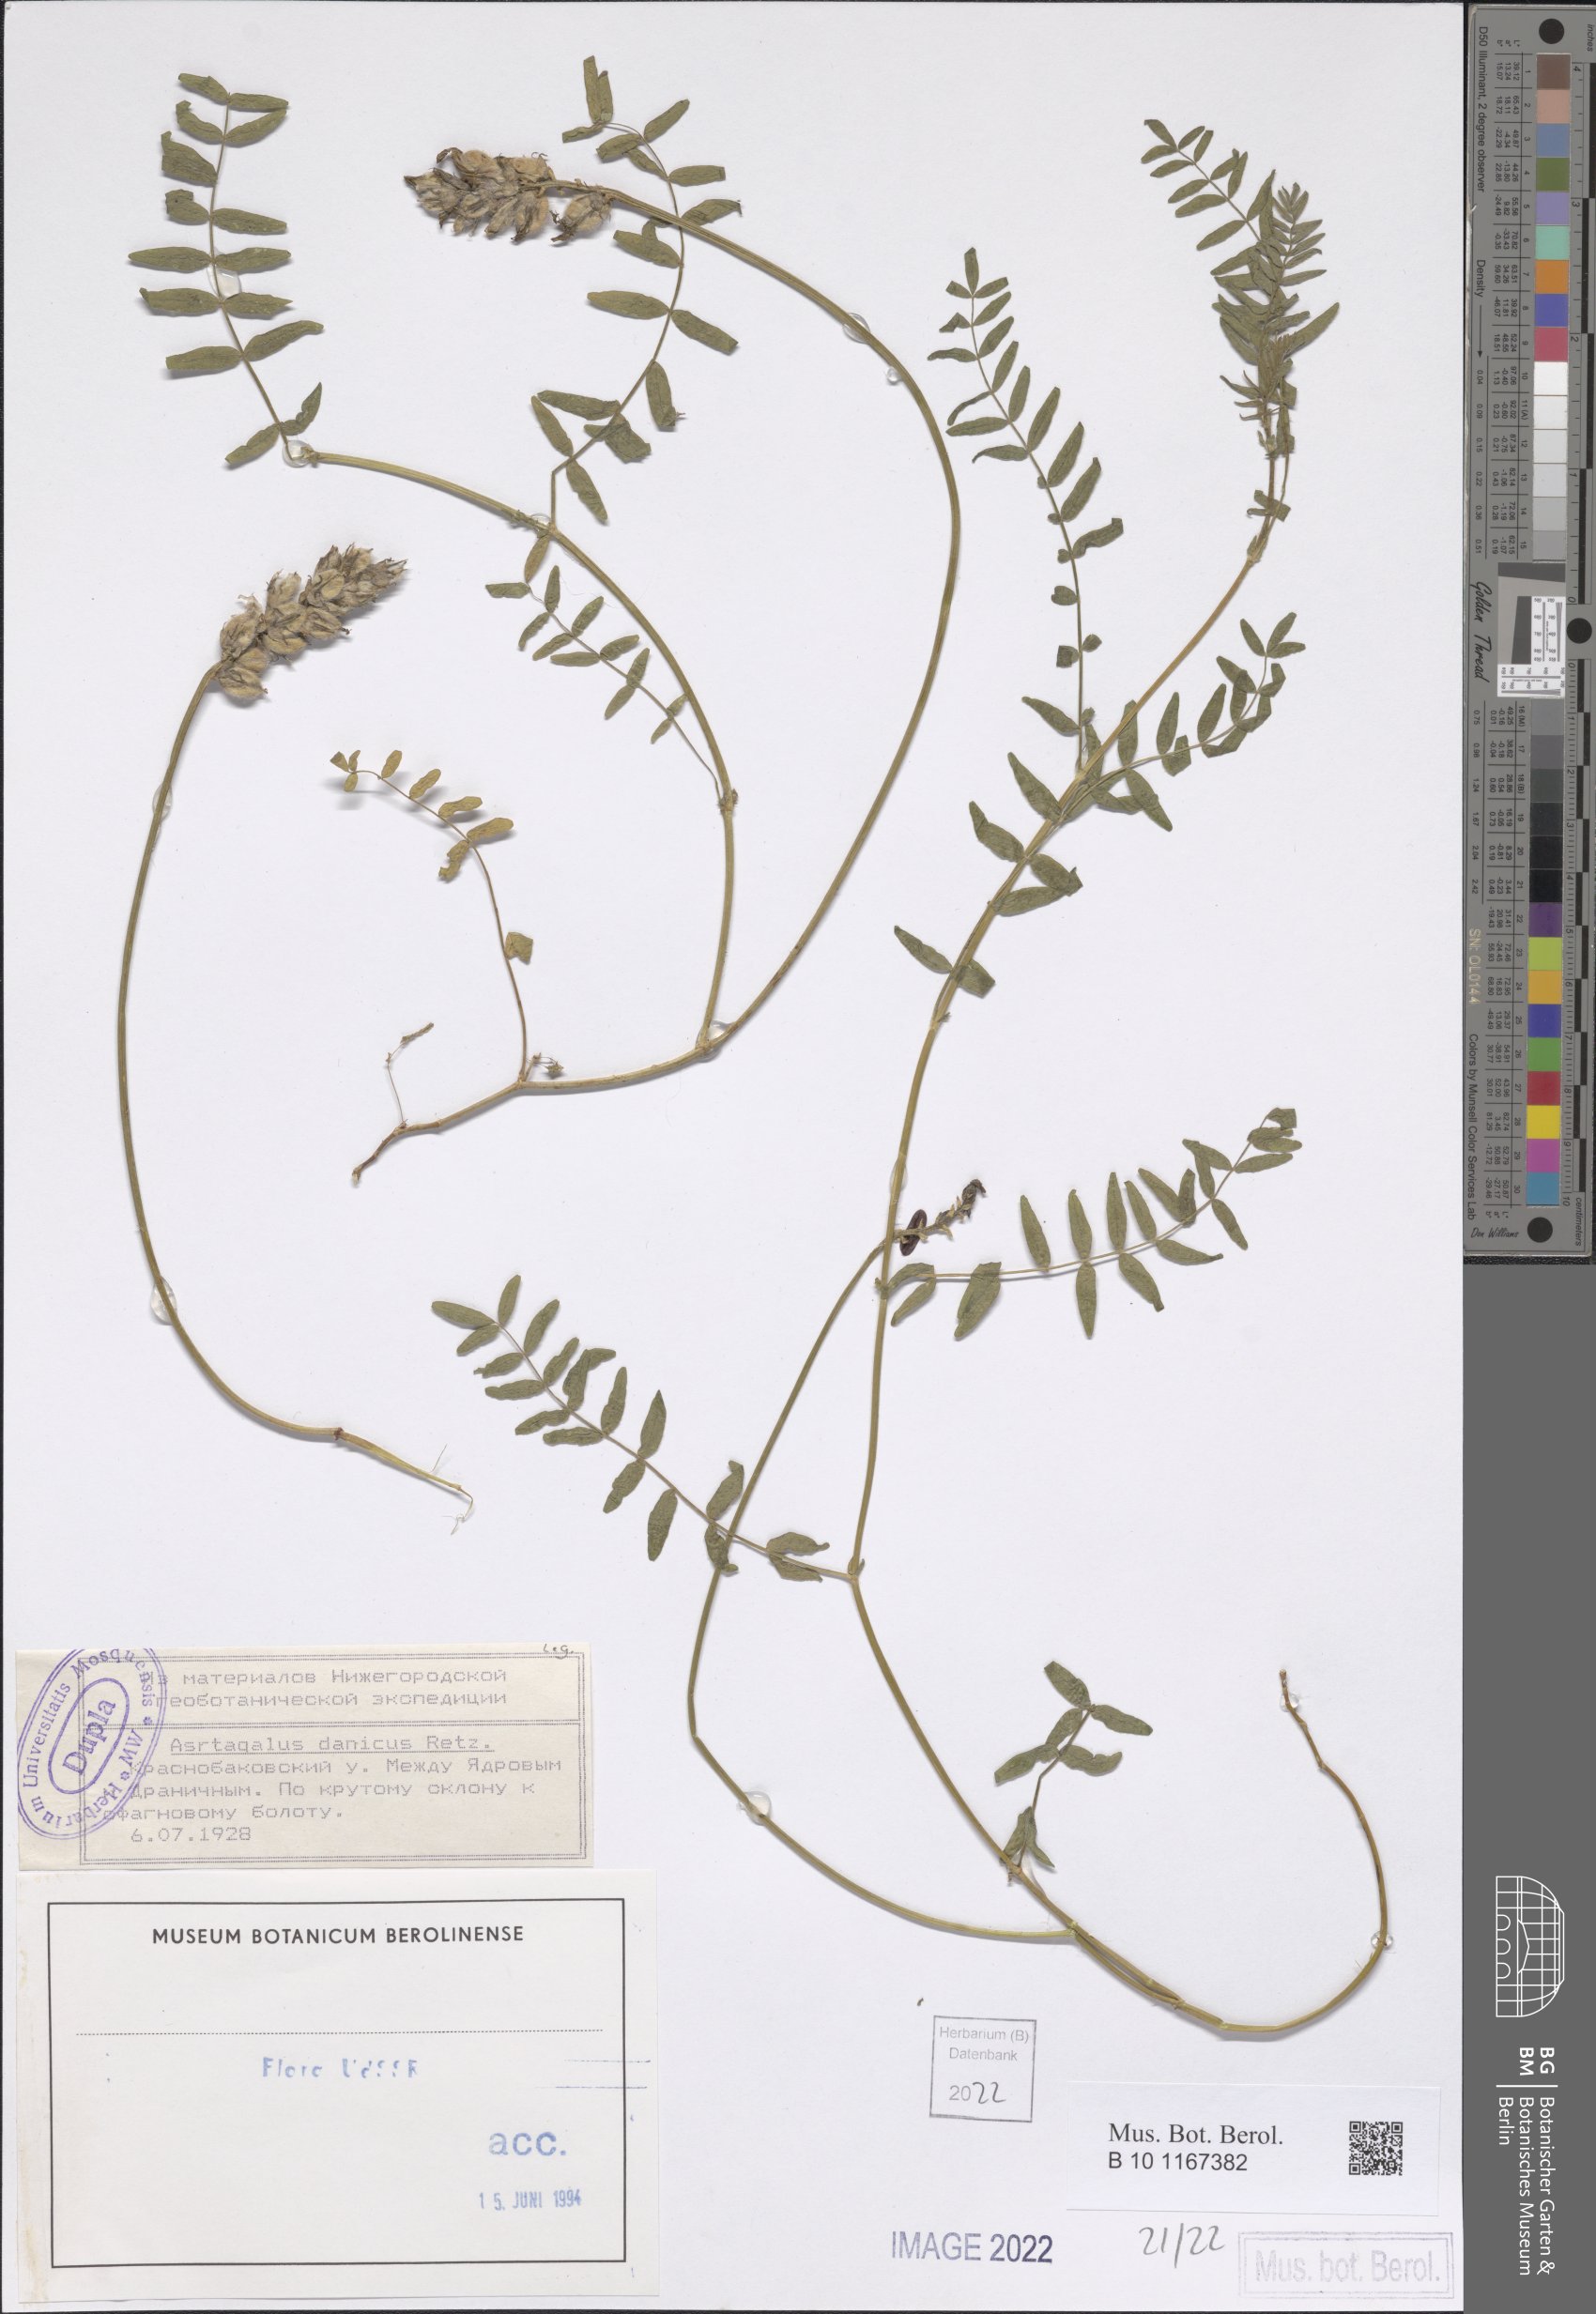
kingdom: Plantae
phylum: Tracheophyta
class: Magnoliopsida
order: Fabales
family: Fabaceae
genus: Astragalus
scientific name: Astragalus danicus
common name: Purple milk-vetch
